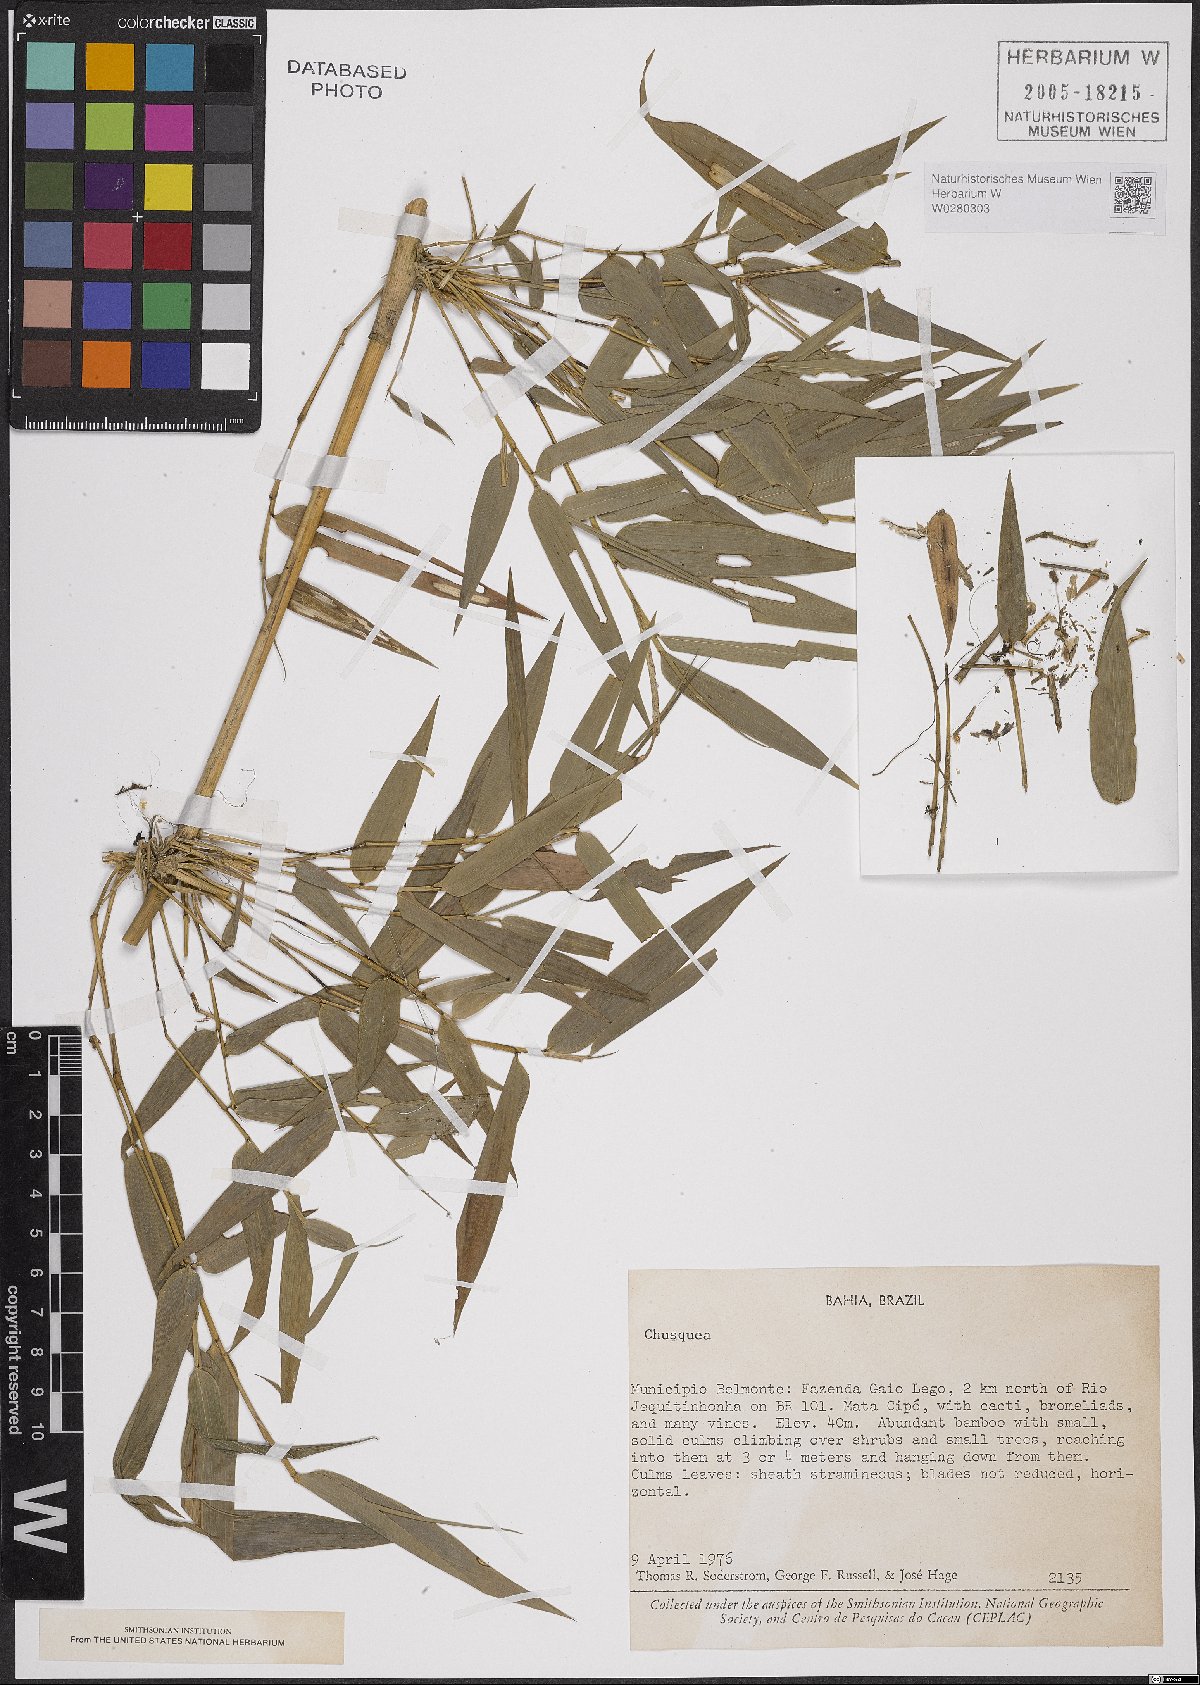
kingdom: Plantae
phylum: Tracheophyta
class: Liliopsida
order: Poales
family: Poaceae
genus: Chusquea
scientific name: Chusquea
